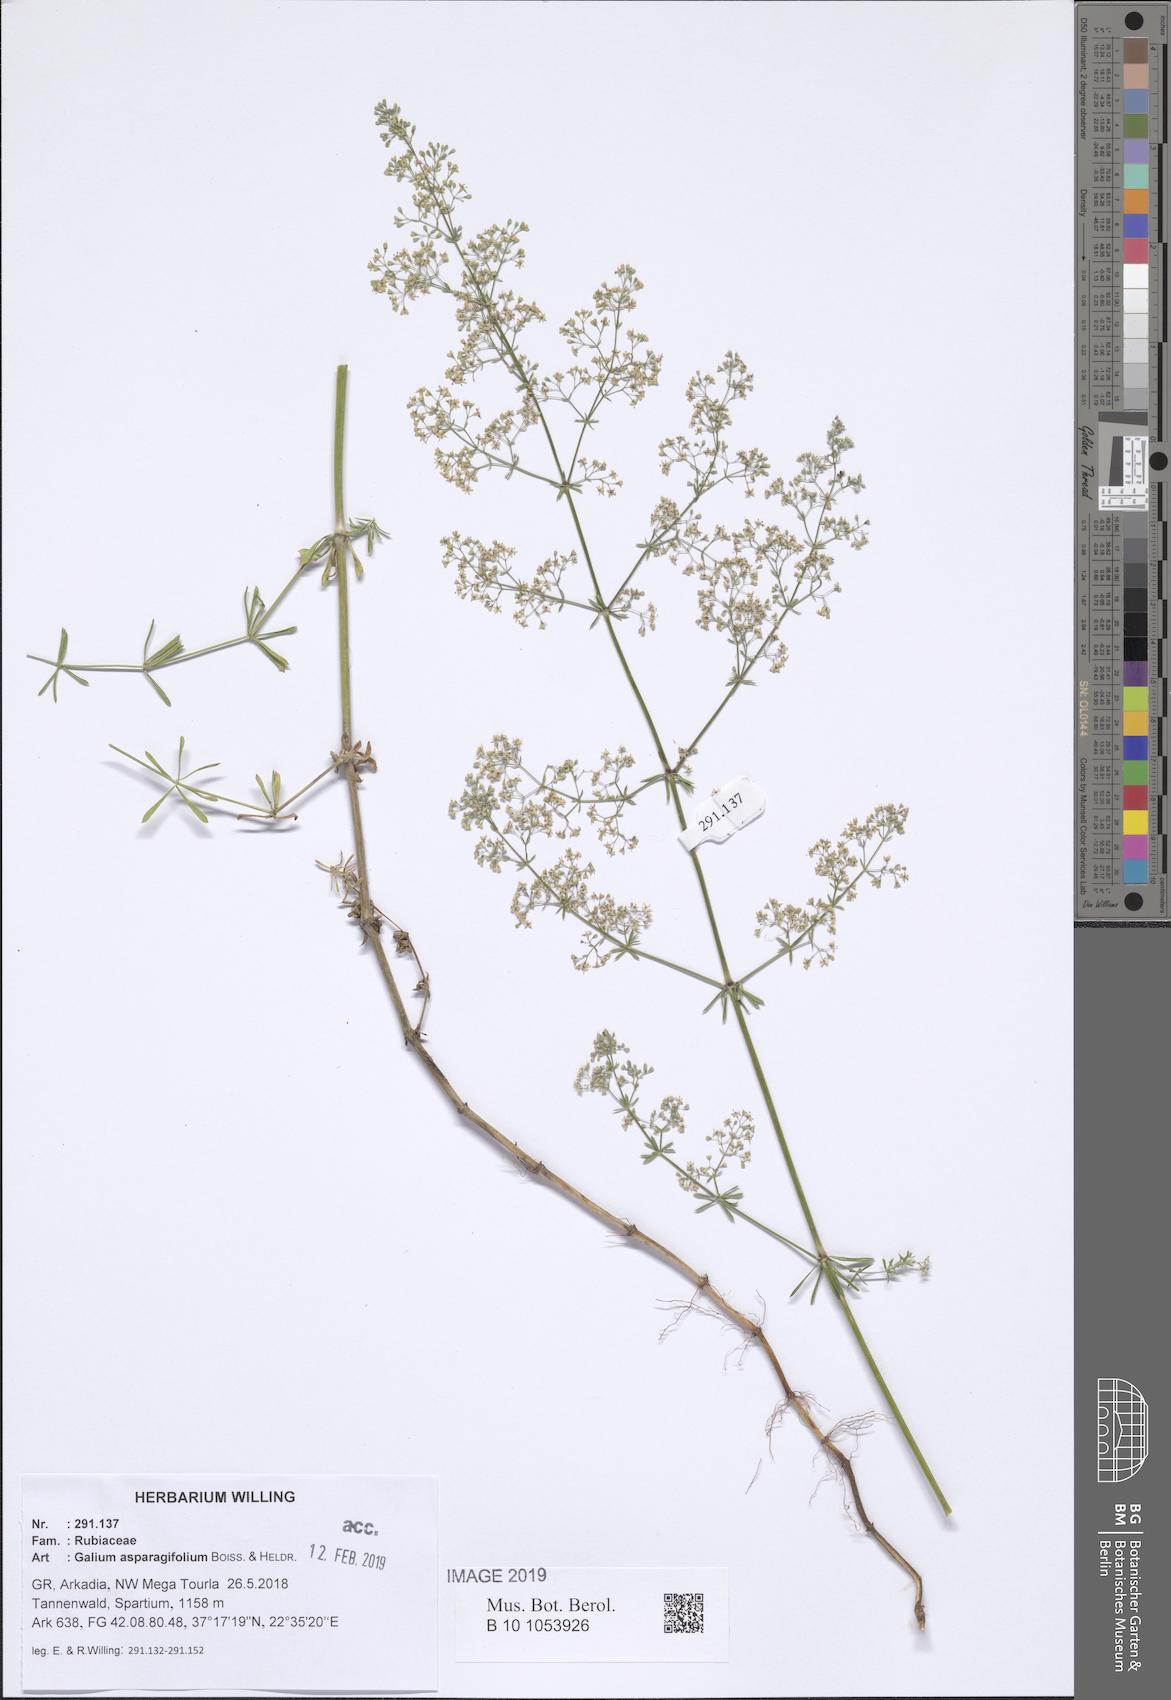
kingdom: Plantae
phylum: Tracheophyta
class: Magnoliopsida
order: Gentianales
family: Rubiaceae
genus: Galium
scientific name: Galium asparagifolium
